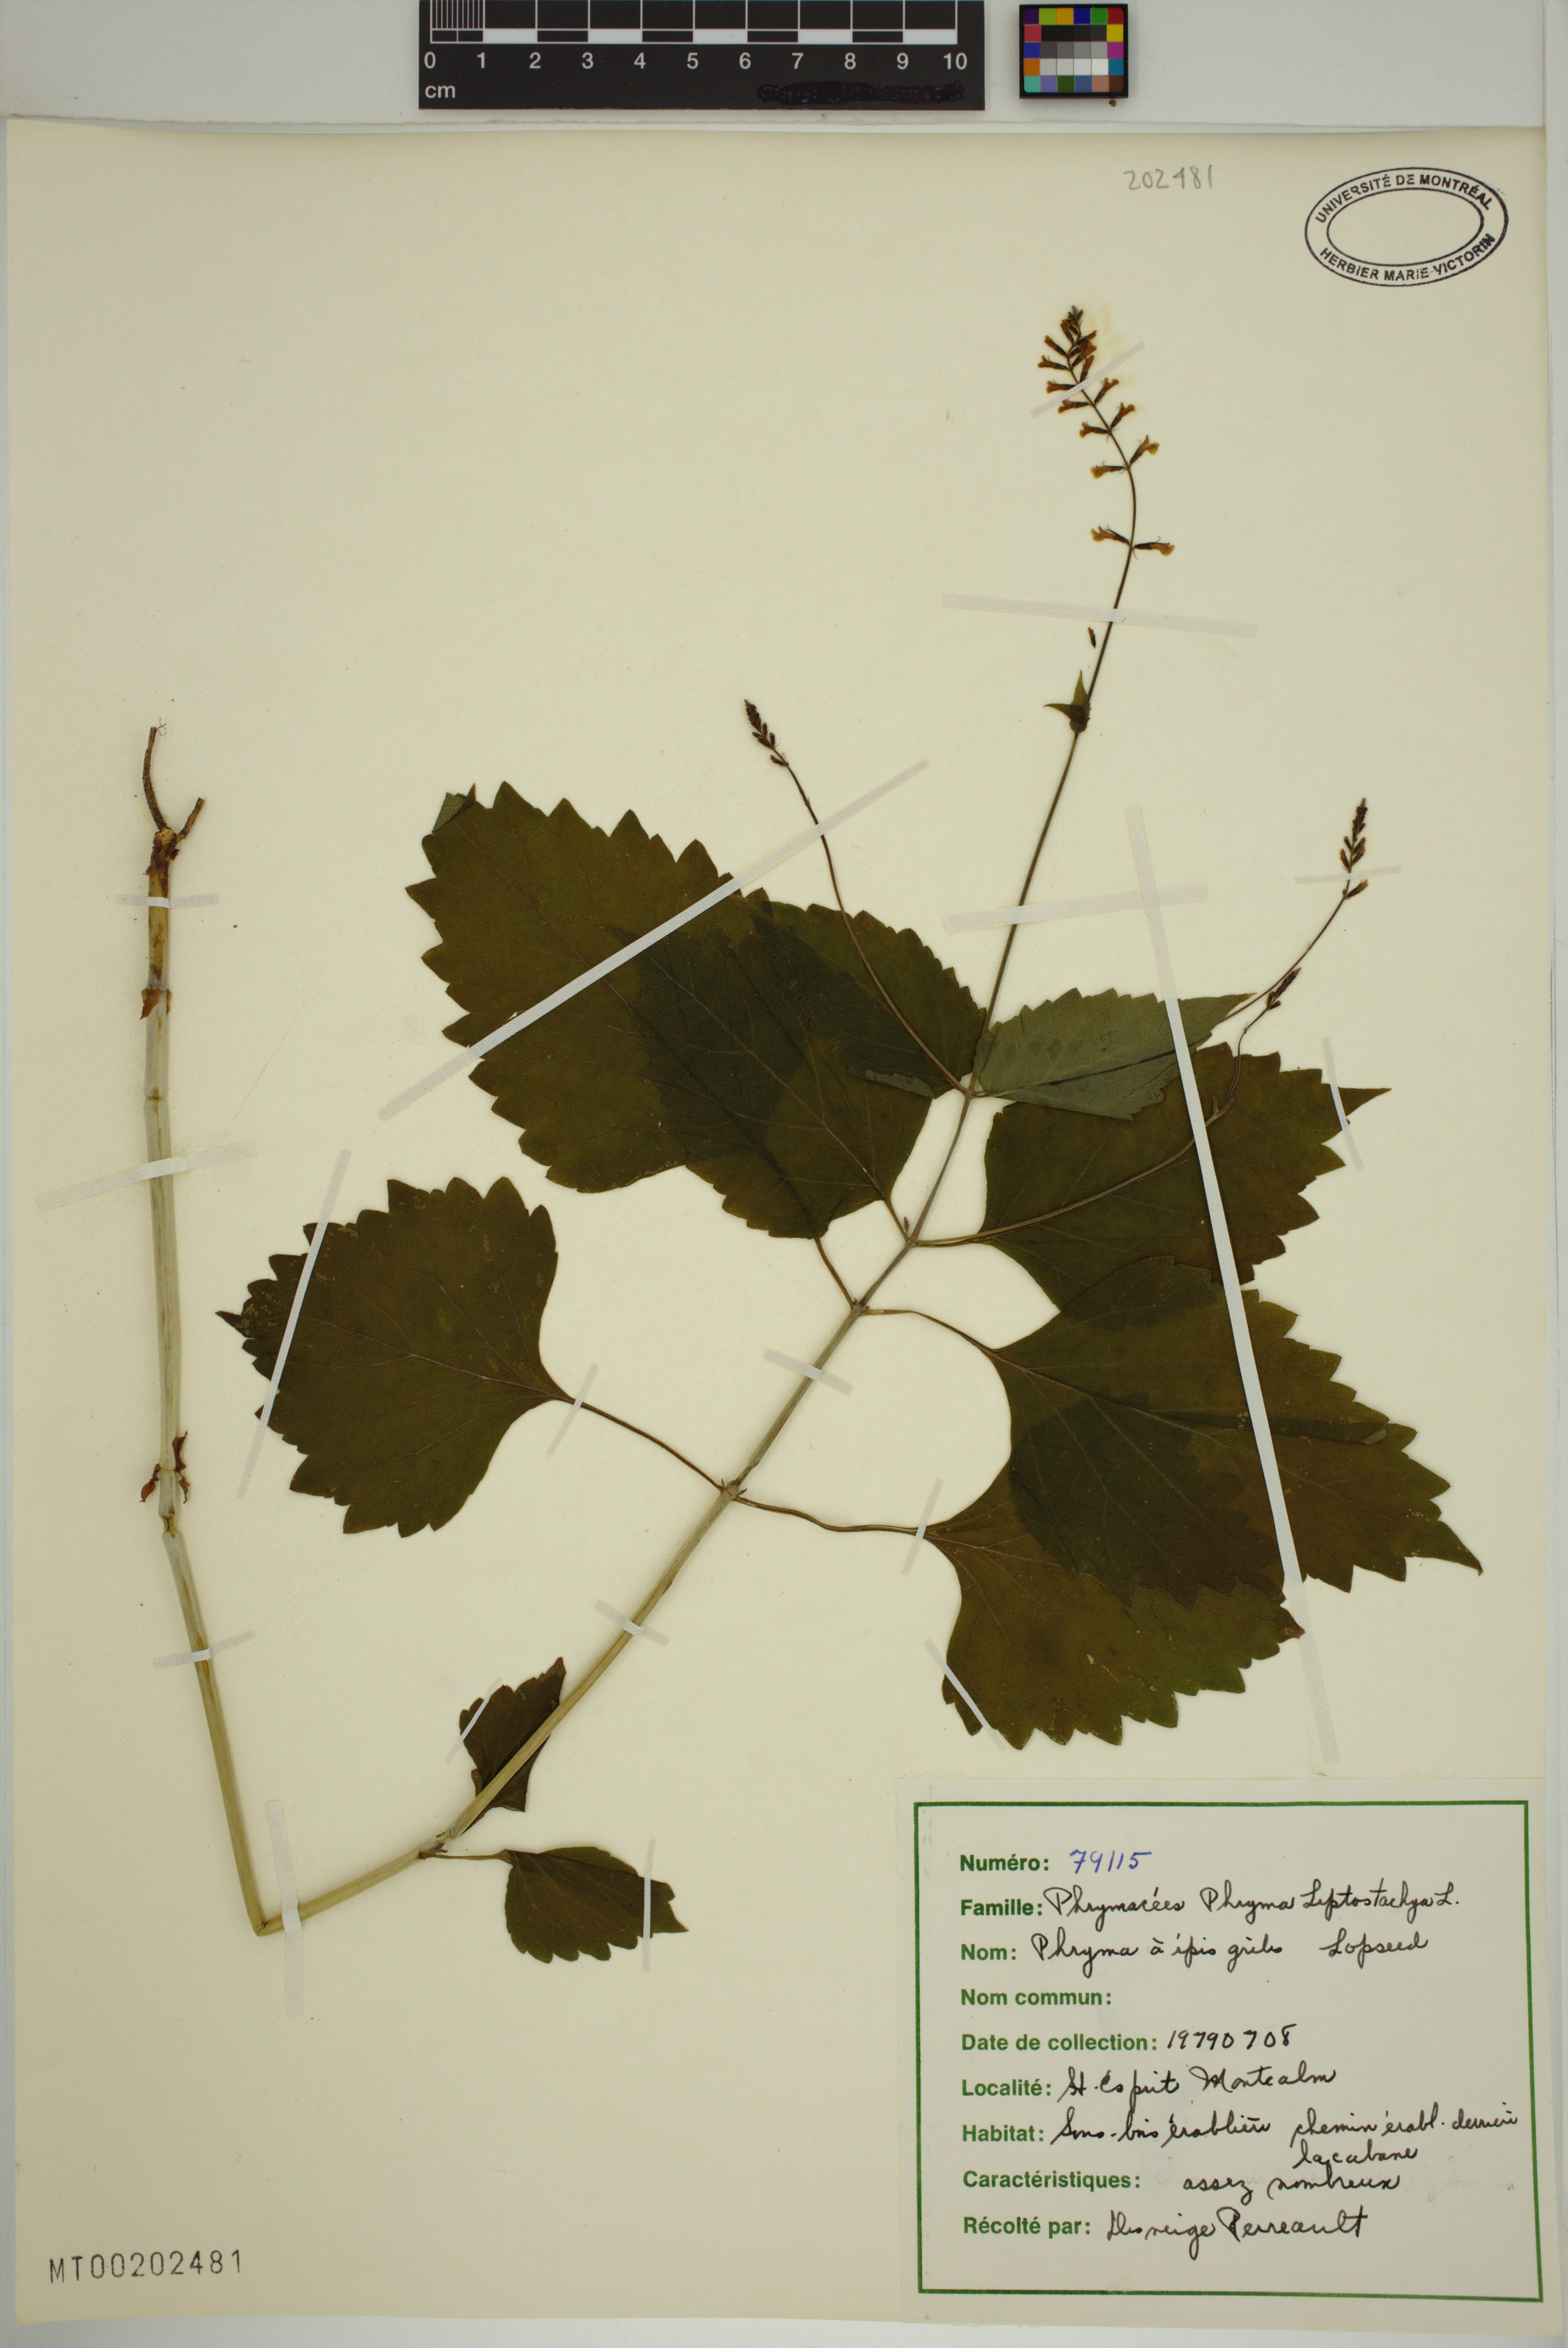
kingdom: Plantae
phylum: Tracheophyta
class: Magnoliopsida
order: Lamiales
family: Phrymaceae
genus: Phryma
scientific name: Phryma leptostachya
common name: American lopseed
